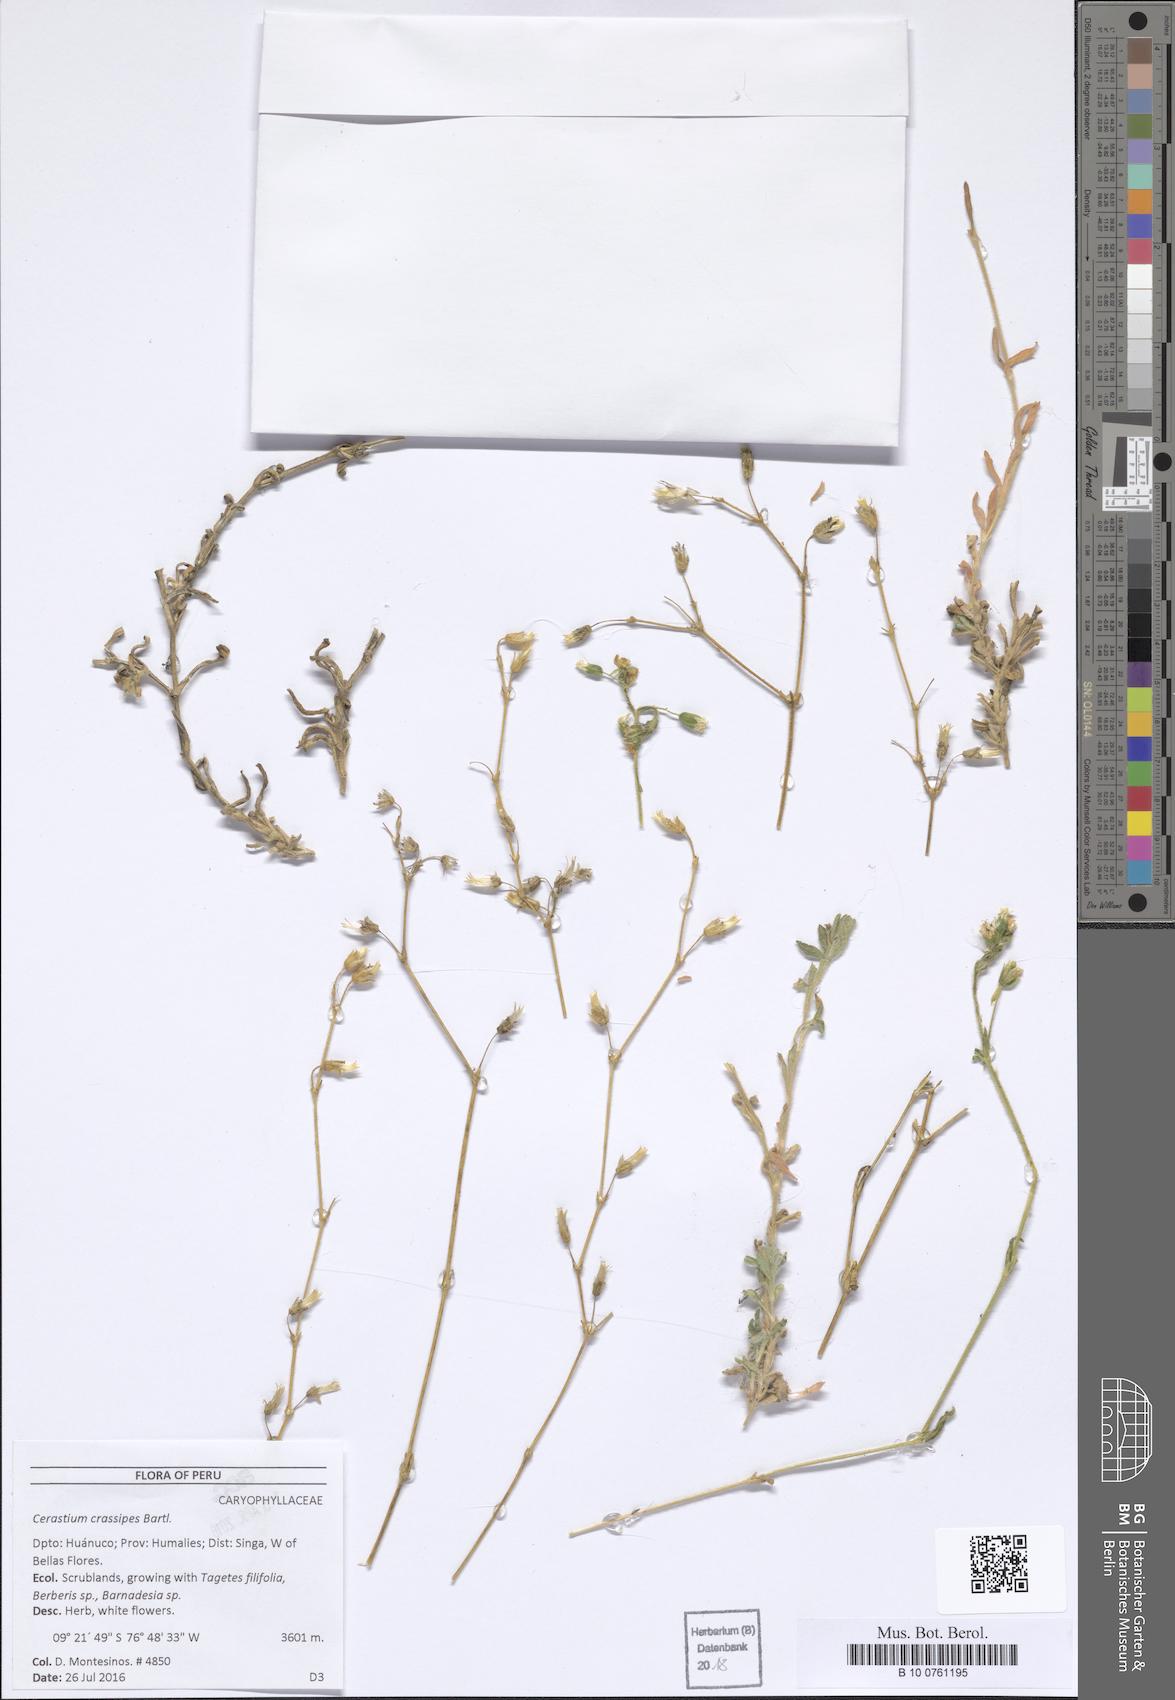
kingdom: Plantae
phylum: Tracheophyta
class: Magnoliopsida
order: Caryophyllales
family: Caryophyllaceae
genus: Cerastium
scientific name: Cerastium crassipes
